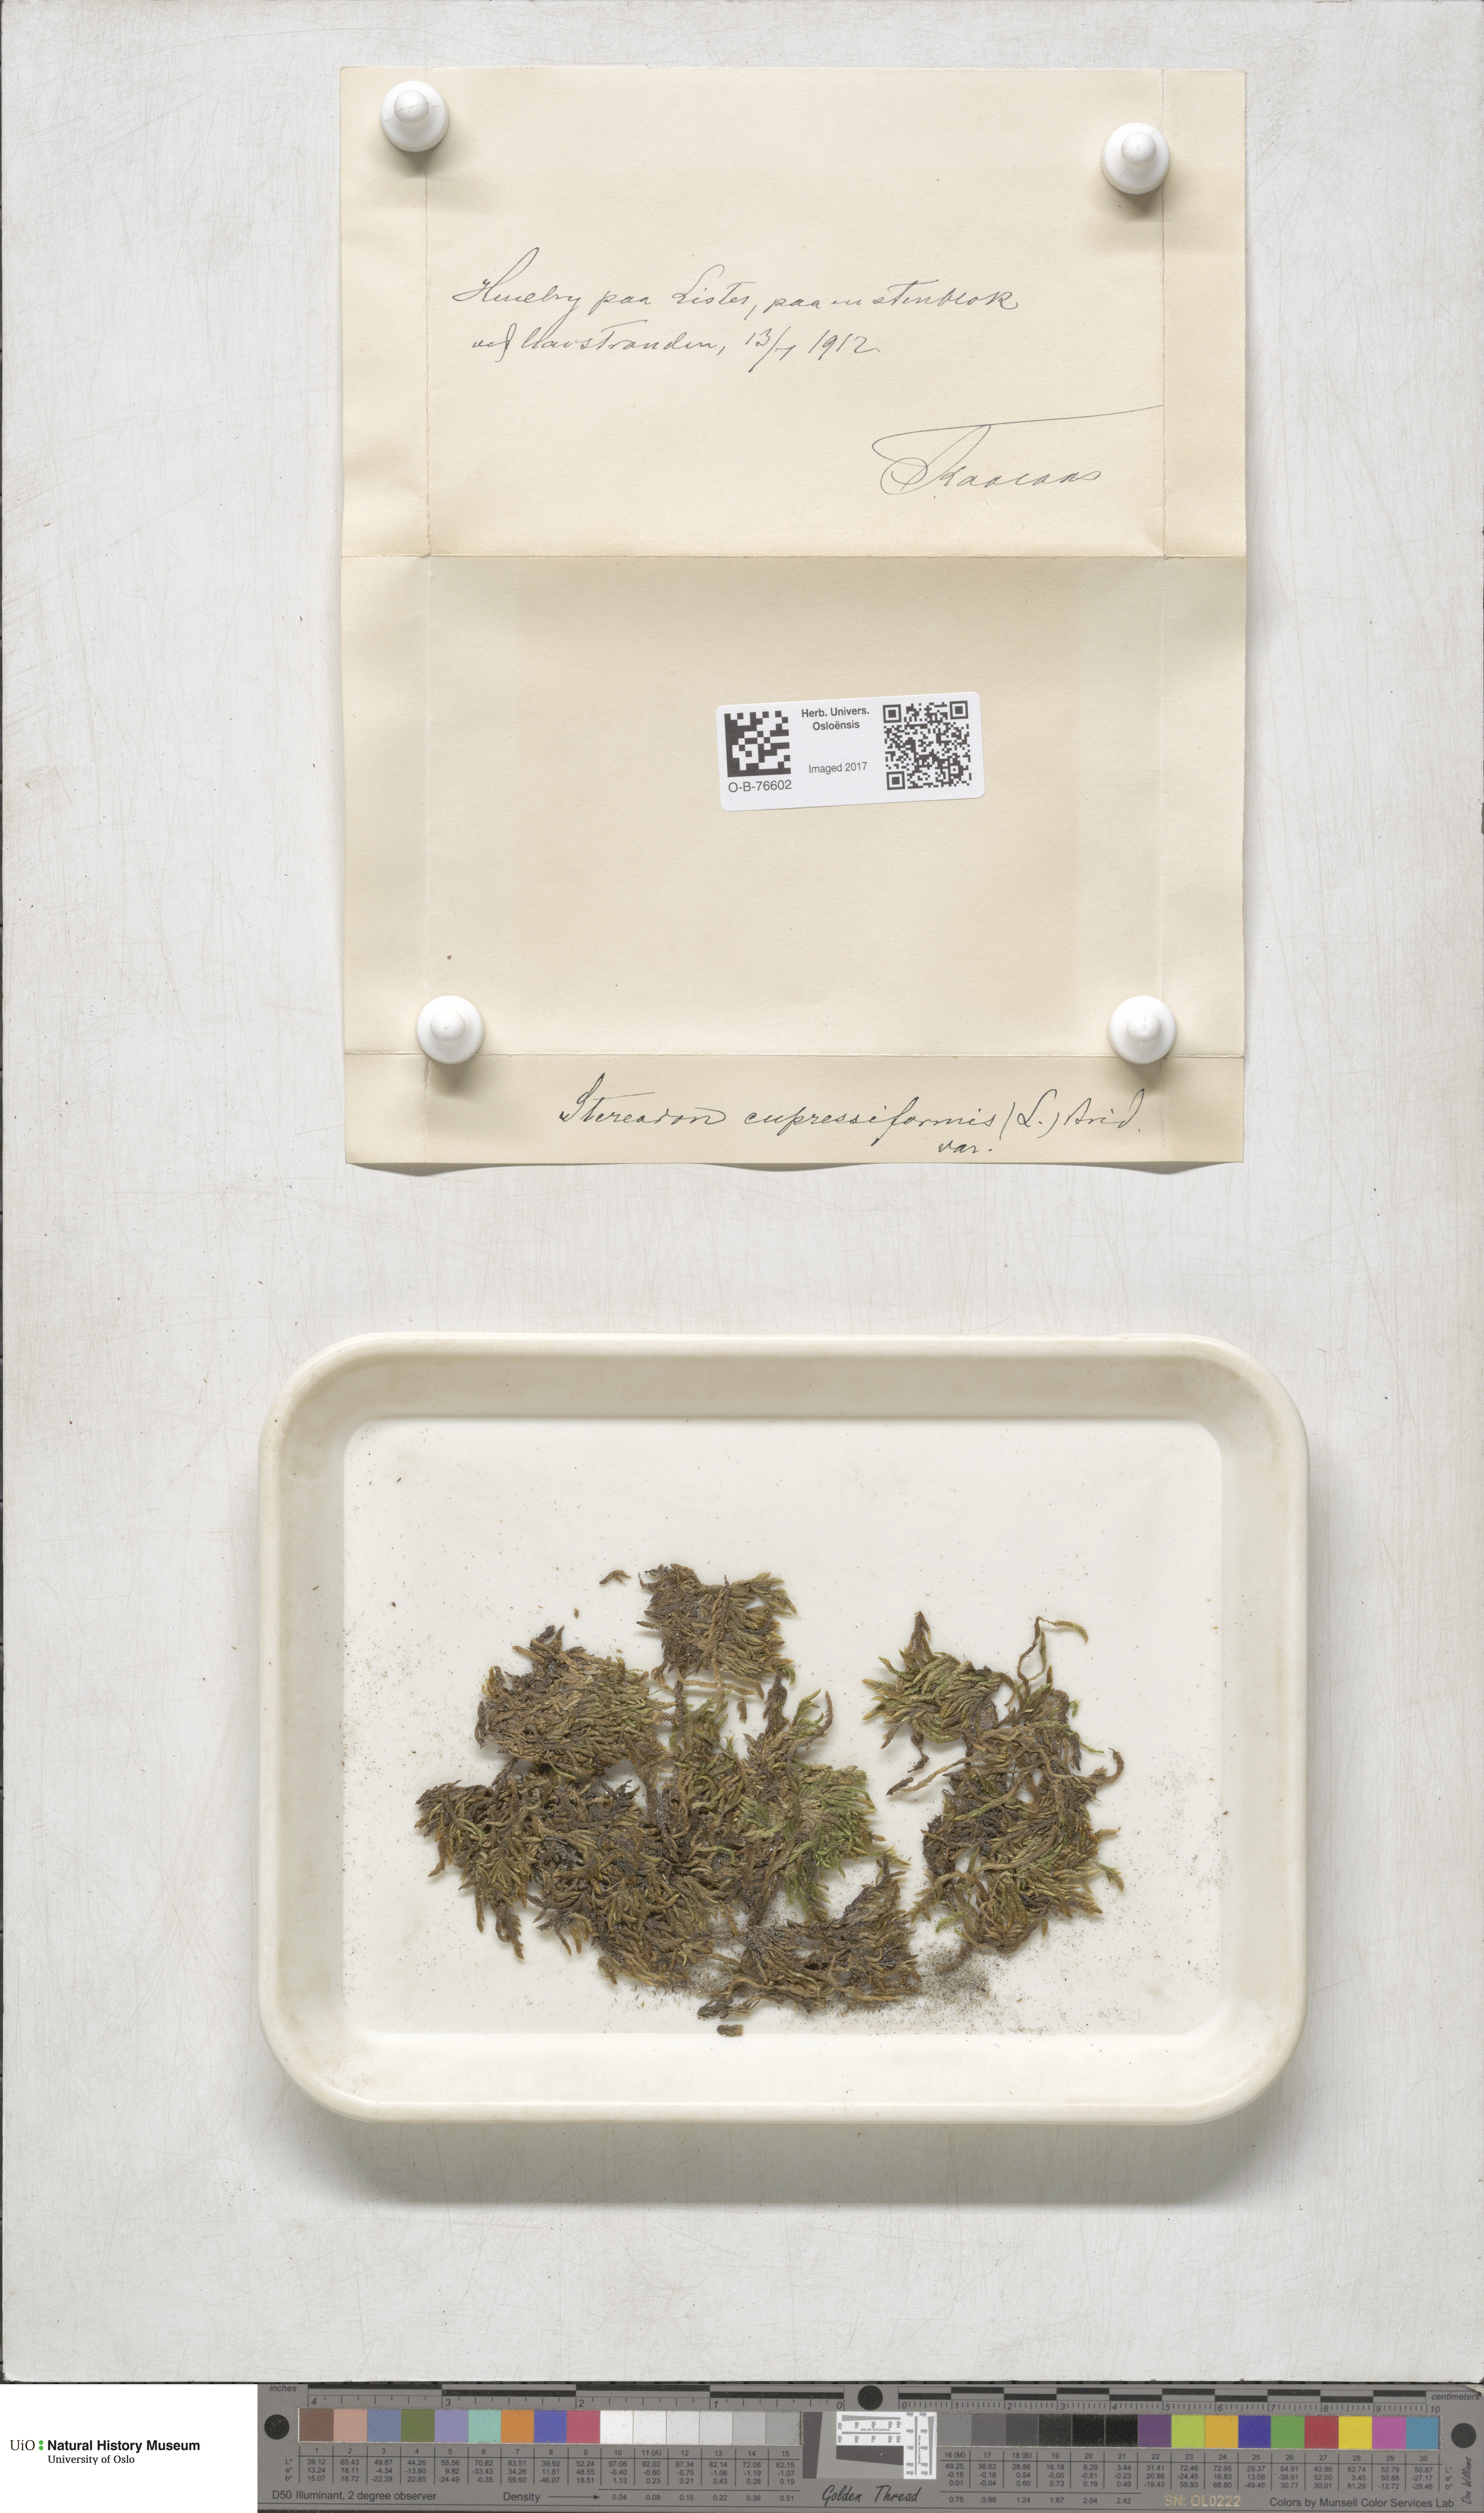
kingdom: Plantae
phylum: Bryophyta
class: Bryopsida
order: Hypnales
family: Hypnaceae
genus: Hypnum
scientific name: Hypnum cupressiforme
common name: Cypress-leaved plait-moss
